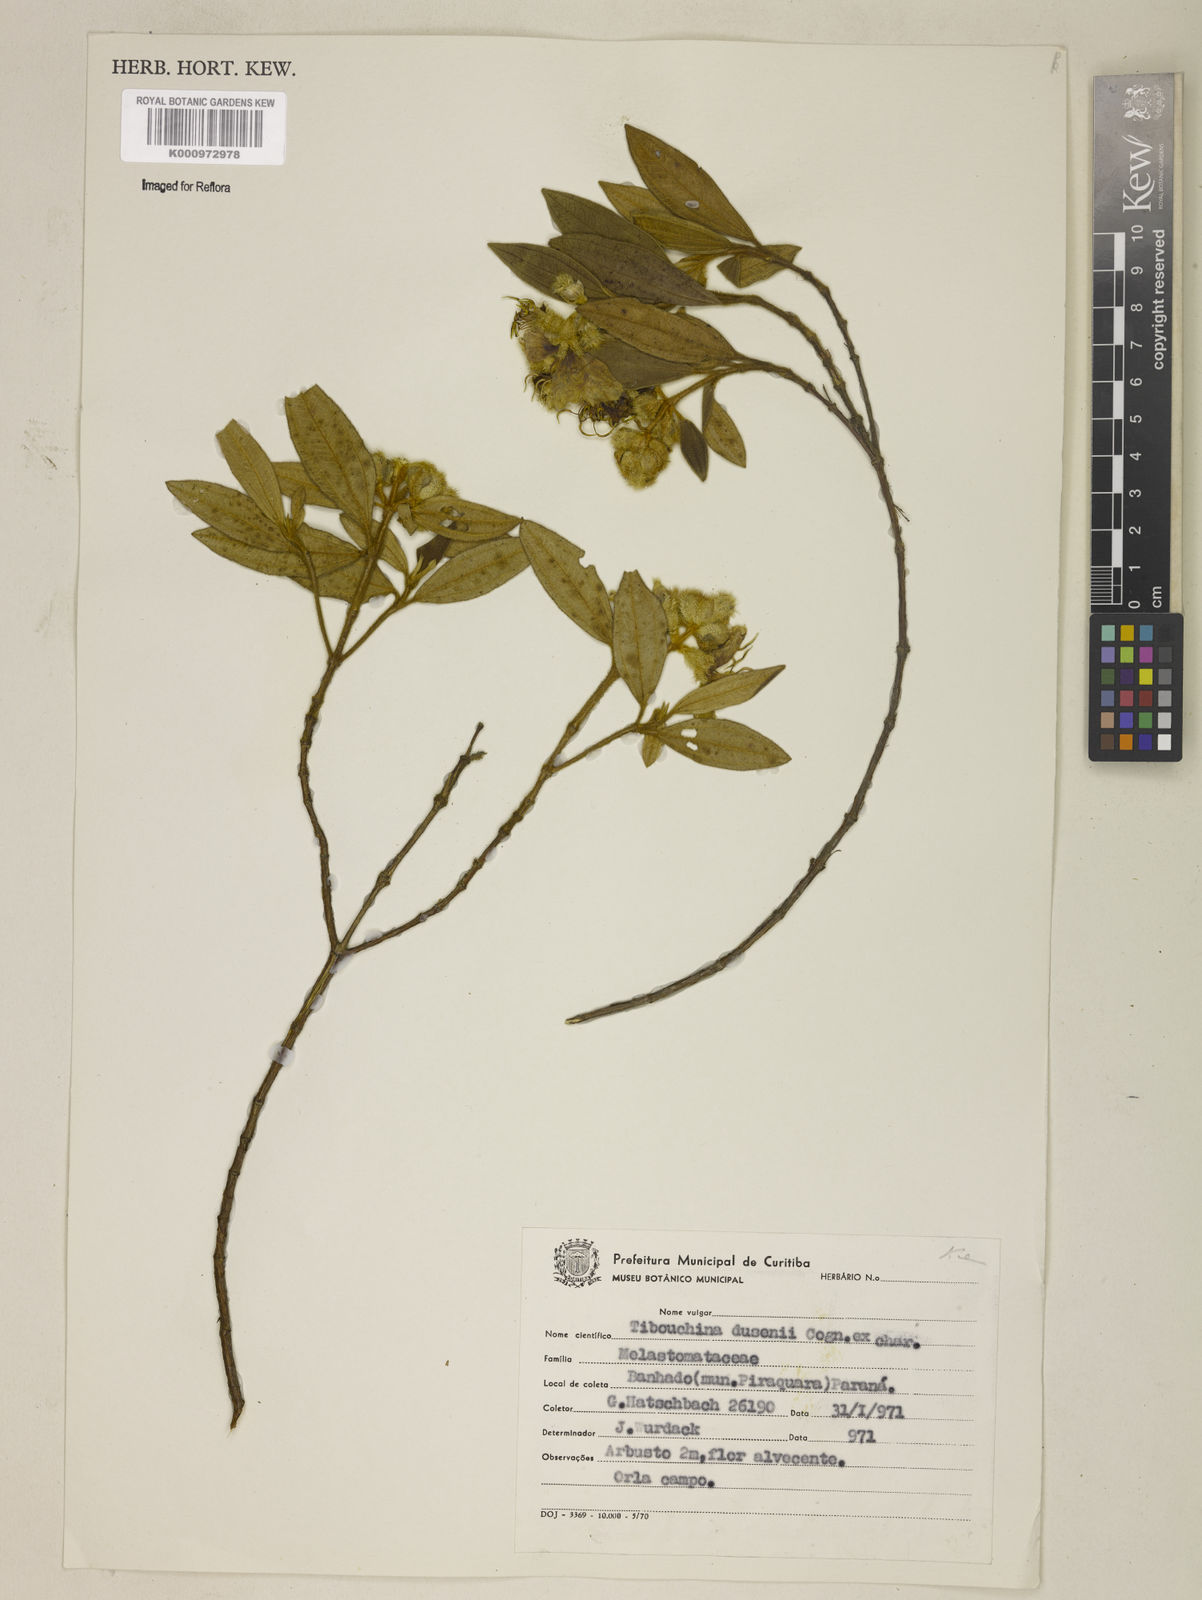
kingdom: Plantae
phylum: Tracheophyta
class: Magnoliopsida
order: Myrtales
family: Melastomataceae
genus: Pleroma
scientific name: Pleroma dusenii
